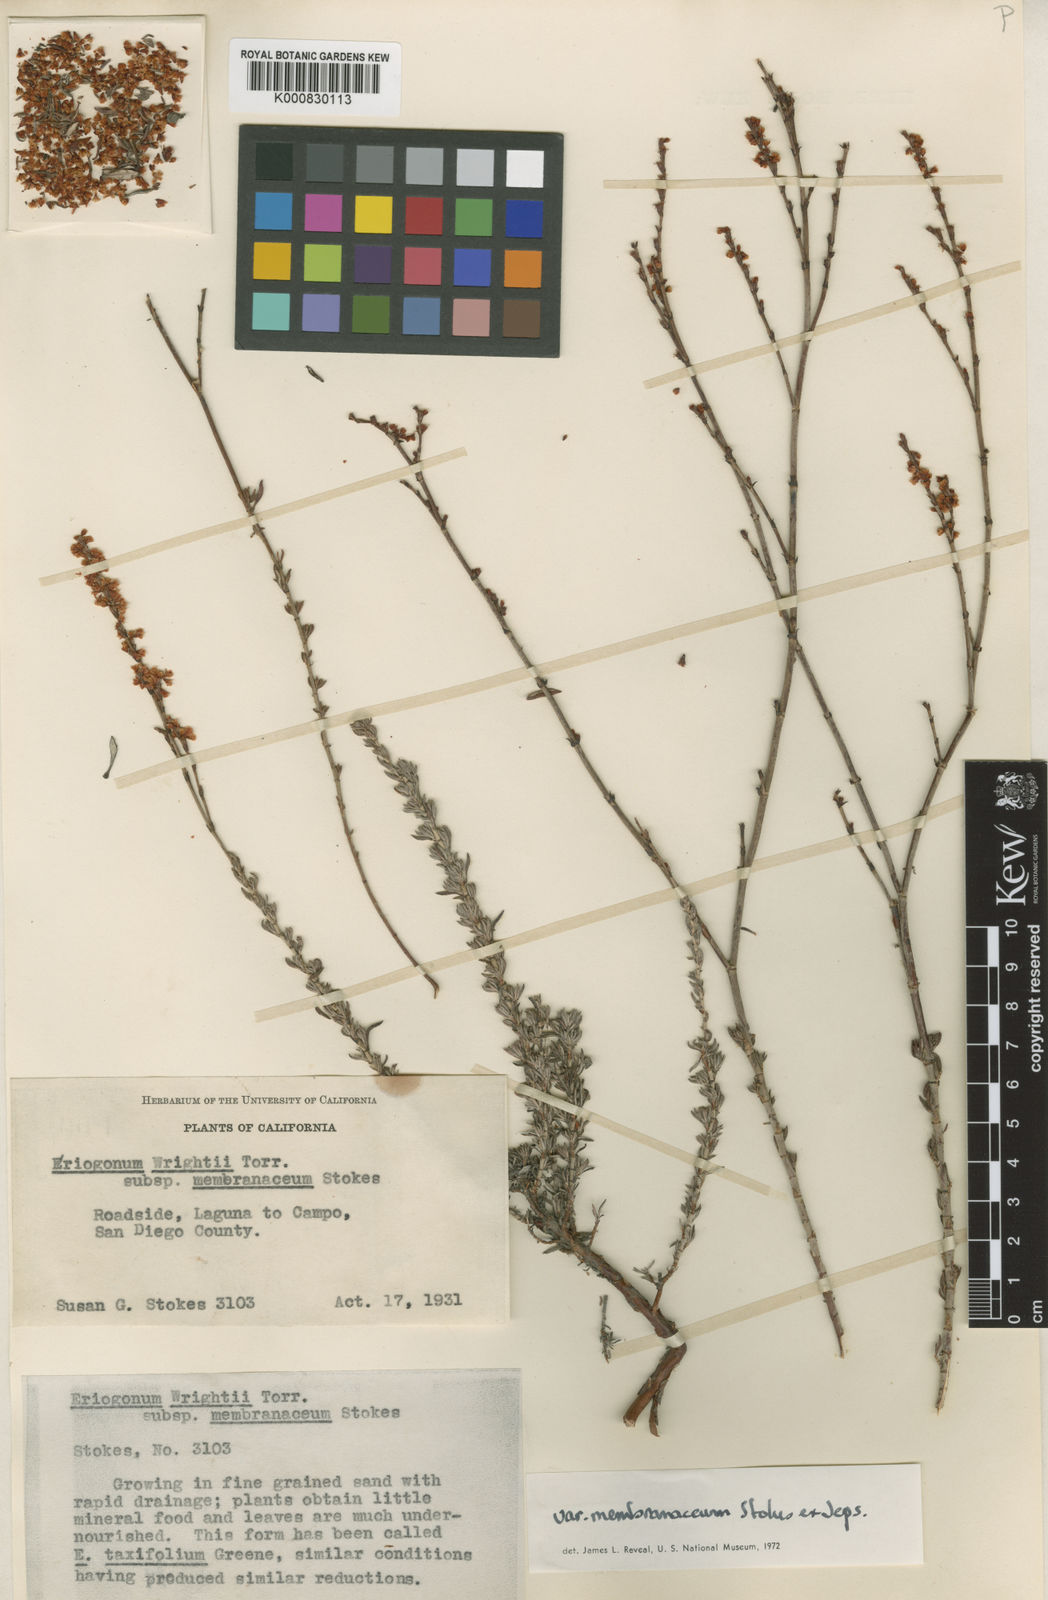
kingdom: Plantae
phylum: Tracheophyta
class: Magnoliopsida
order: Caryophyllales
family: Polygonaceae
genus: Eriogonum
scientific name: Eriogonum wrightii
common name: Bastard-sage
